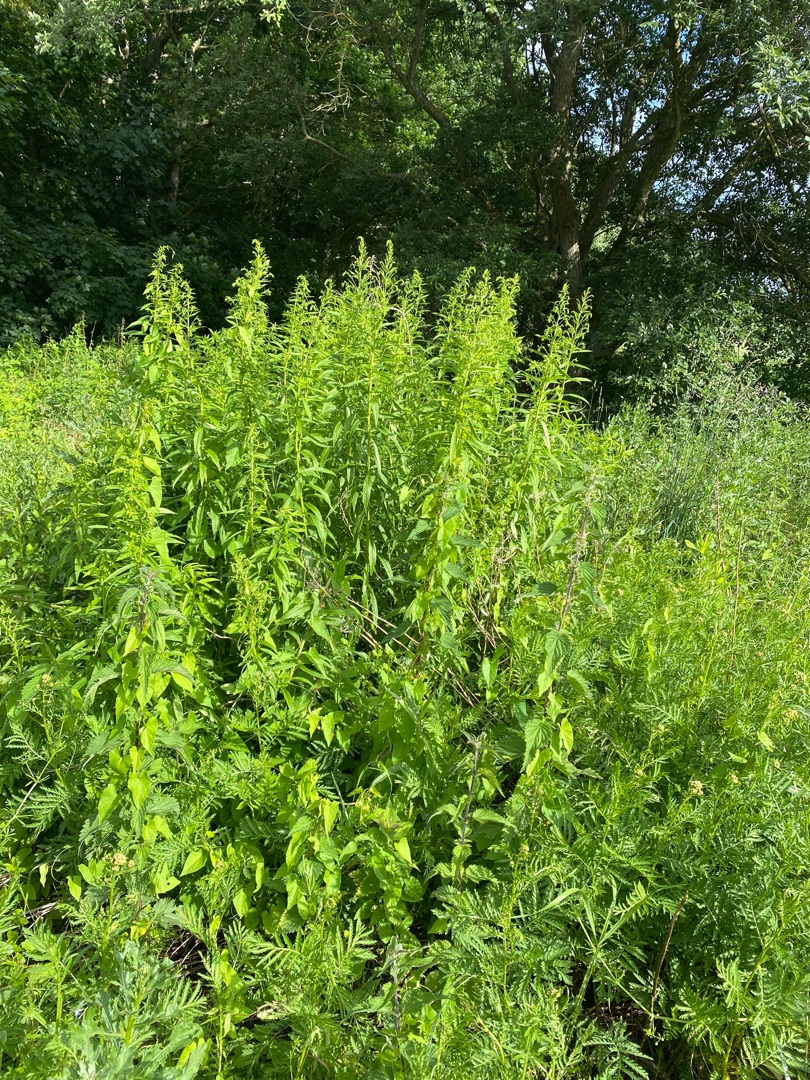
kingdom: Plantae
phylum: Tracheophyta
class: Magnoliopsida
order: Asterales
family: Asteraceae
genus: Solidago
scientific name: Solidago
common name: Gyldenrisslægten
